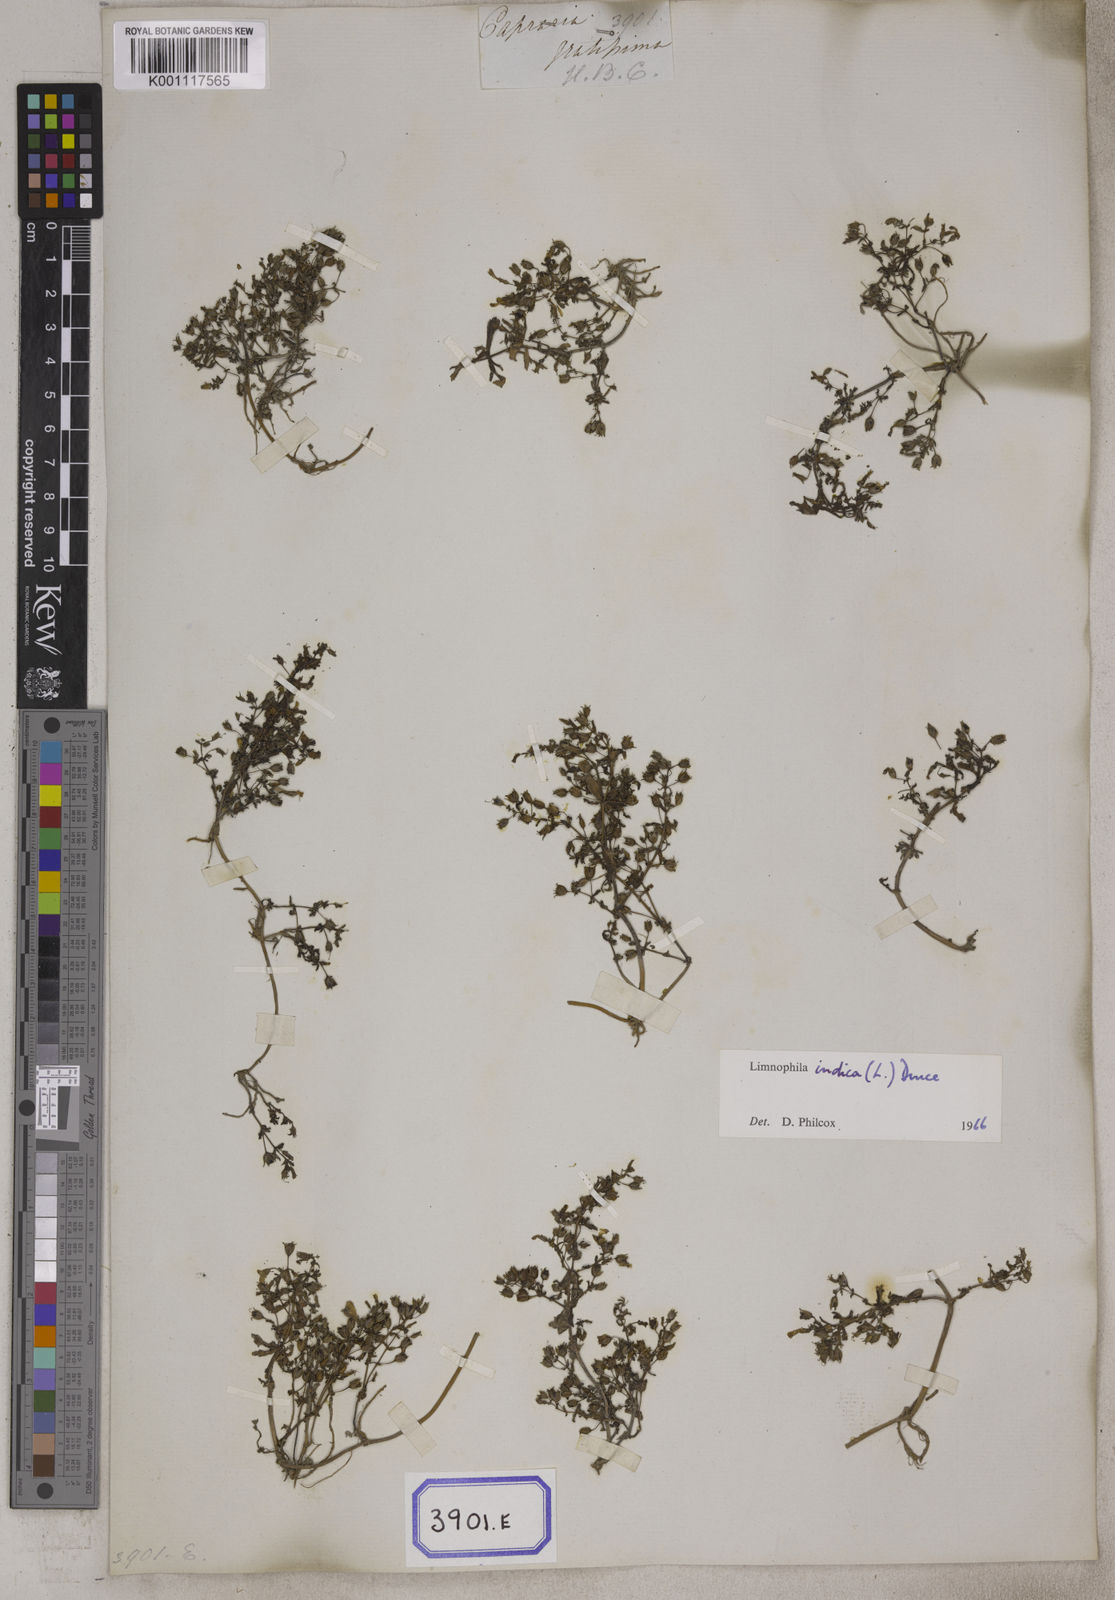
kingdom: Plantae
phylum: Tracheophyta
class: Magnoliopsida
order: Lamiales
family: Plantaginaceae
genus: Limnophila
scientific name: Limnophila indica
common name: Indian marshweed
